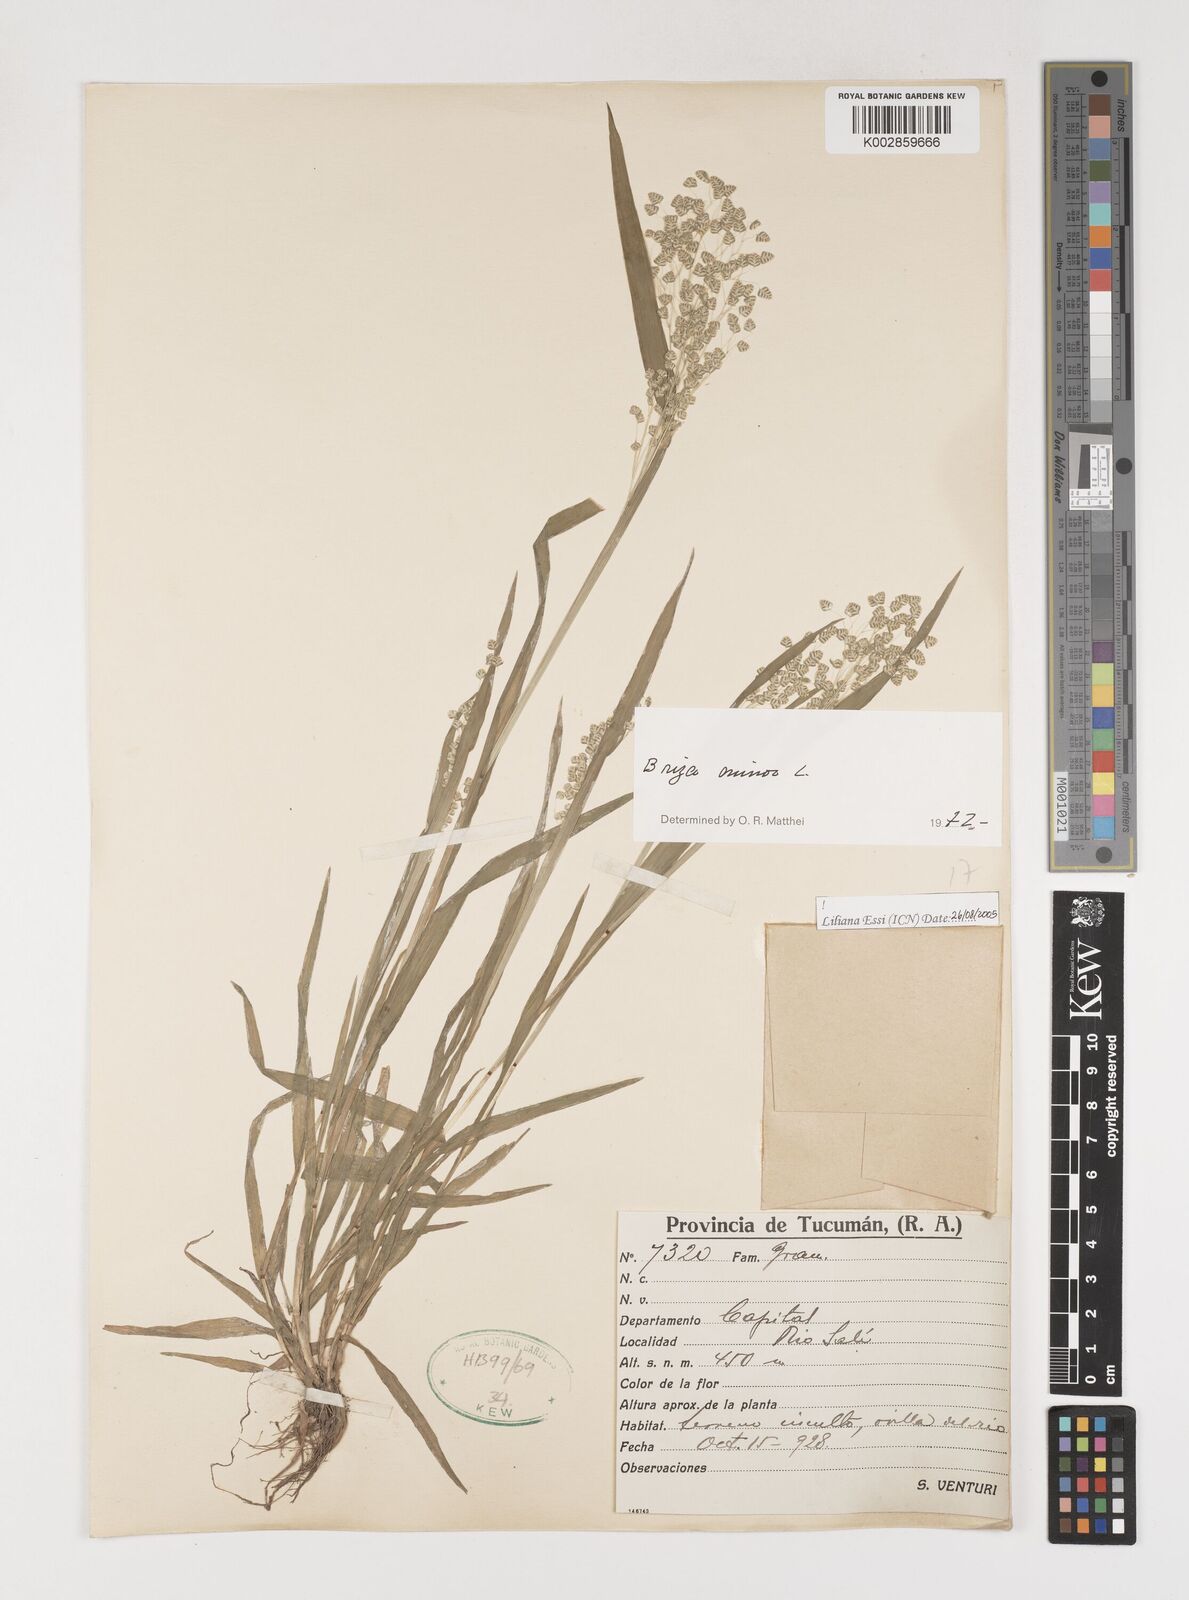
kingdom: Plantae
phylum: Tracheophyta
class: Liliopsida
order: Poales
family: Poaceae
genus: Briza
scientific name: Briza minor
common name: Lesser quaking-grass
